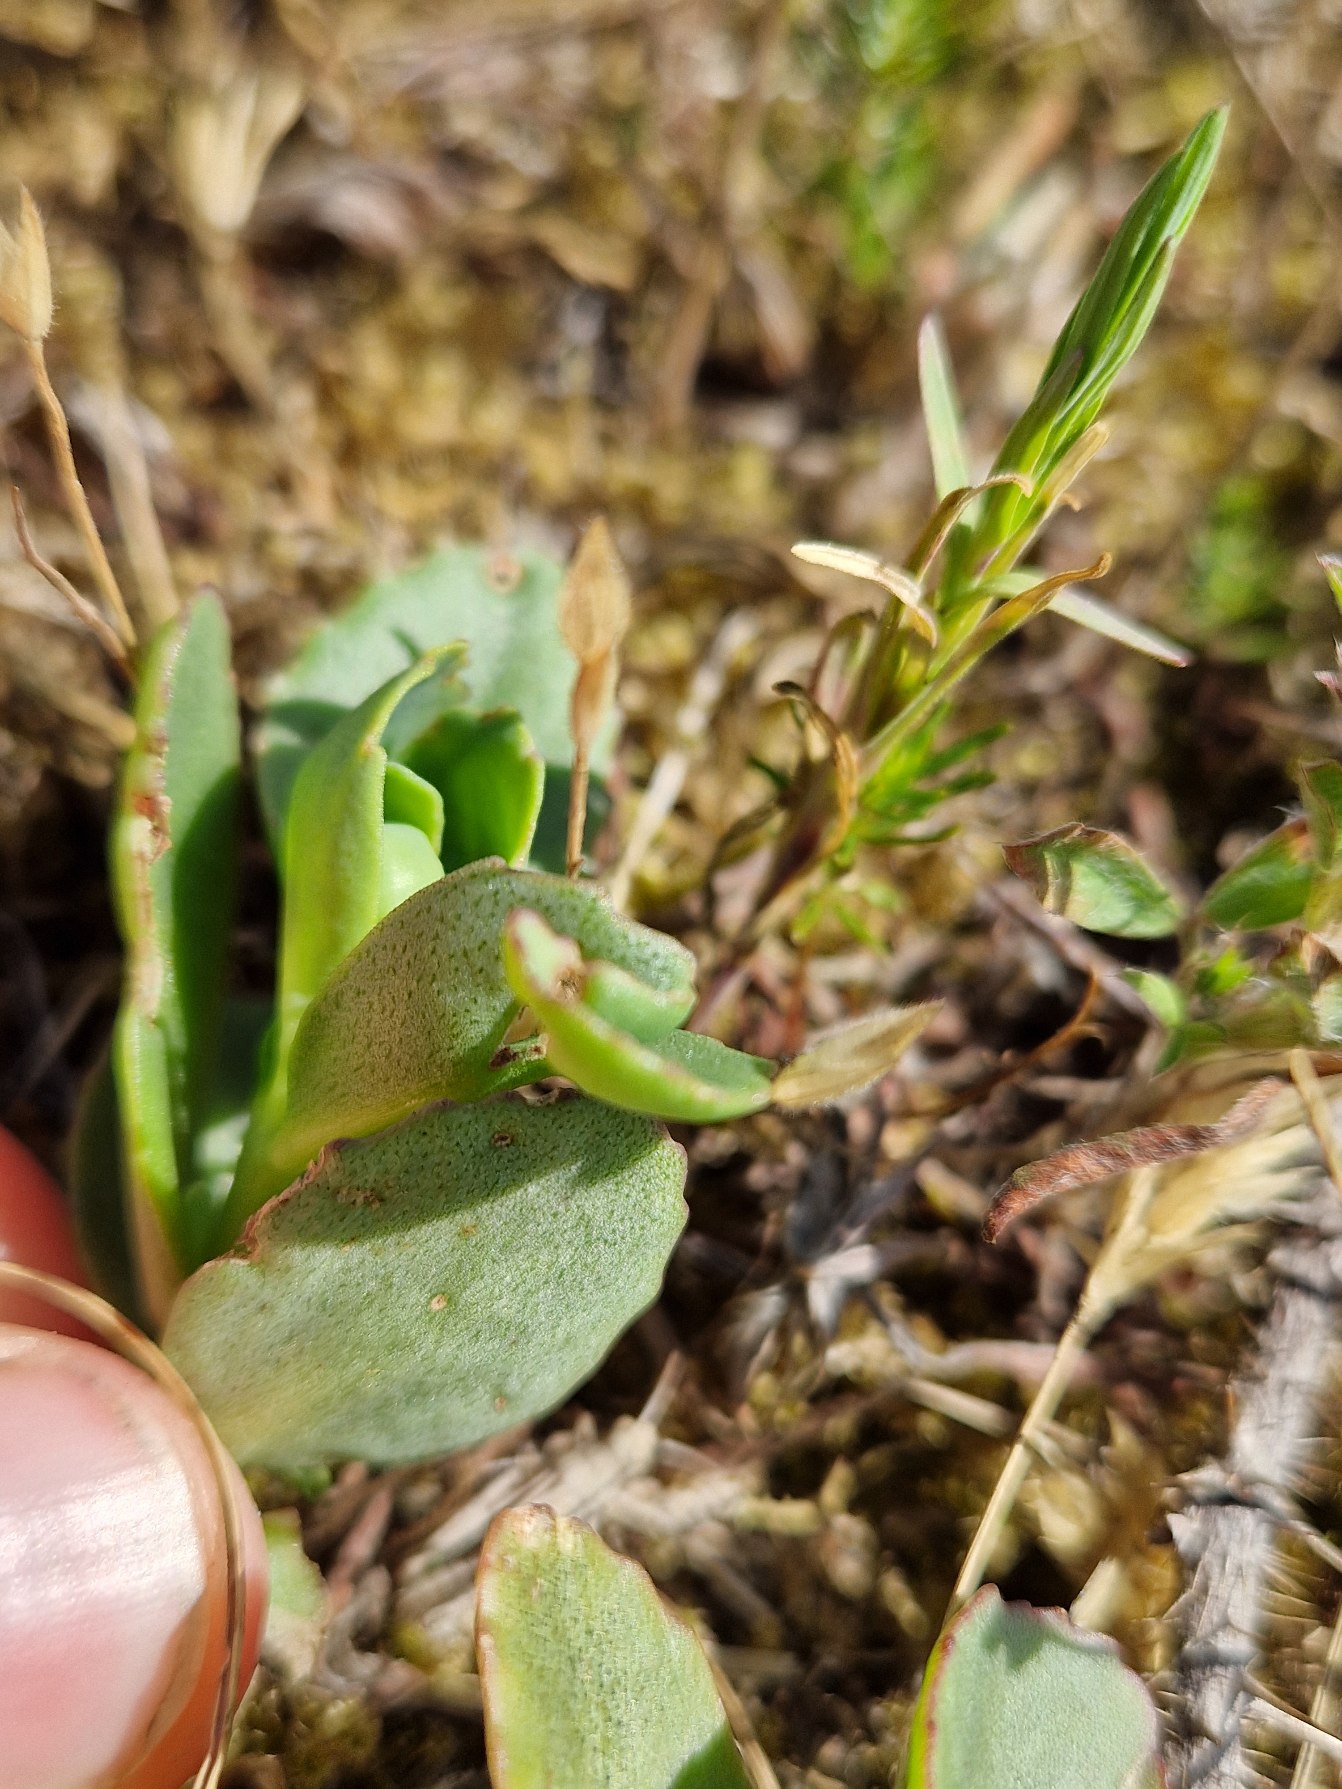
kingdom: Plantae
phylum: Tracheophyta
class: Magnoliopsida
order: Saxifragales
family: Crassulaceae
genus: Hylotelephium
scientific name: Hylotelephium maximum
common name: Almindelig sankthansurt
